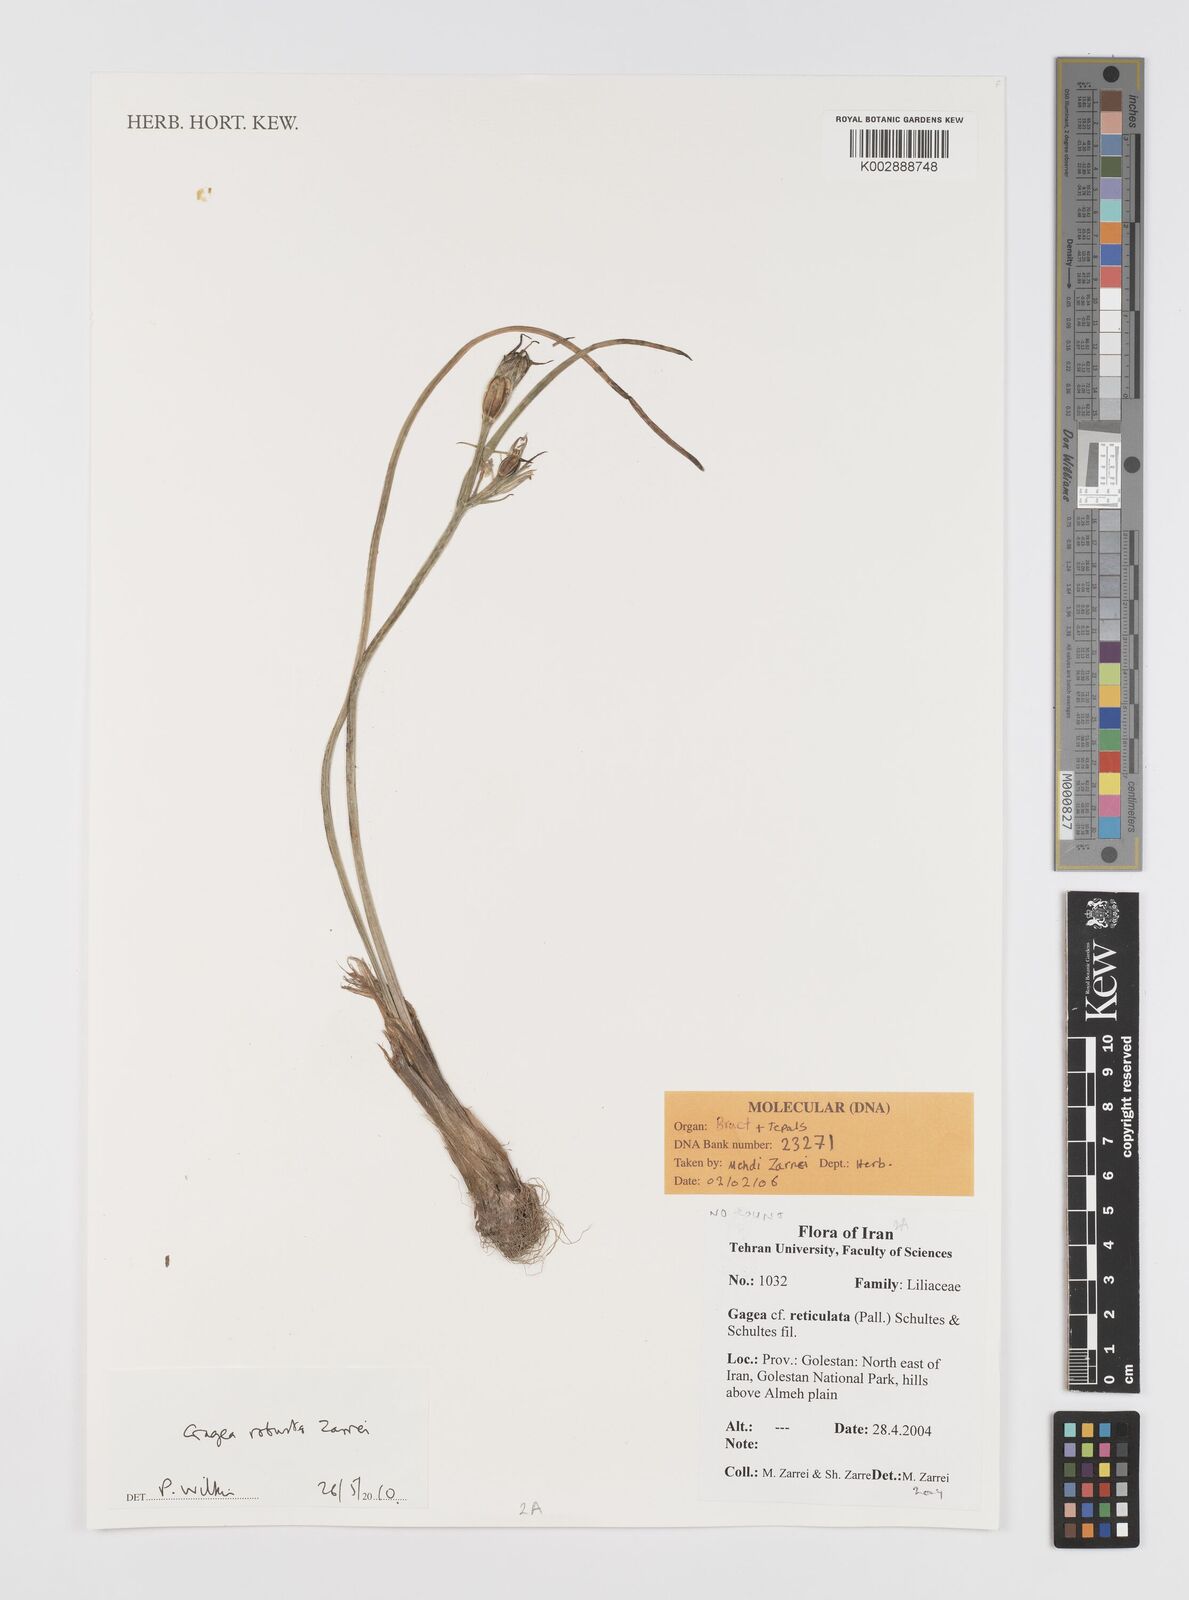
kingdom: Plantae
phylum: Tracheophyta
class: Liliopsida
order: Liliales
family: Liliaceae
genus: Gagea
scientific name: Gagea robusta
